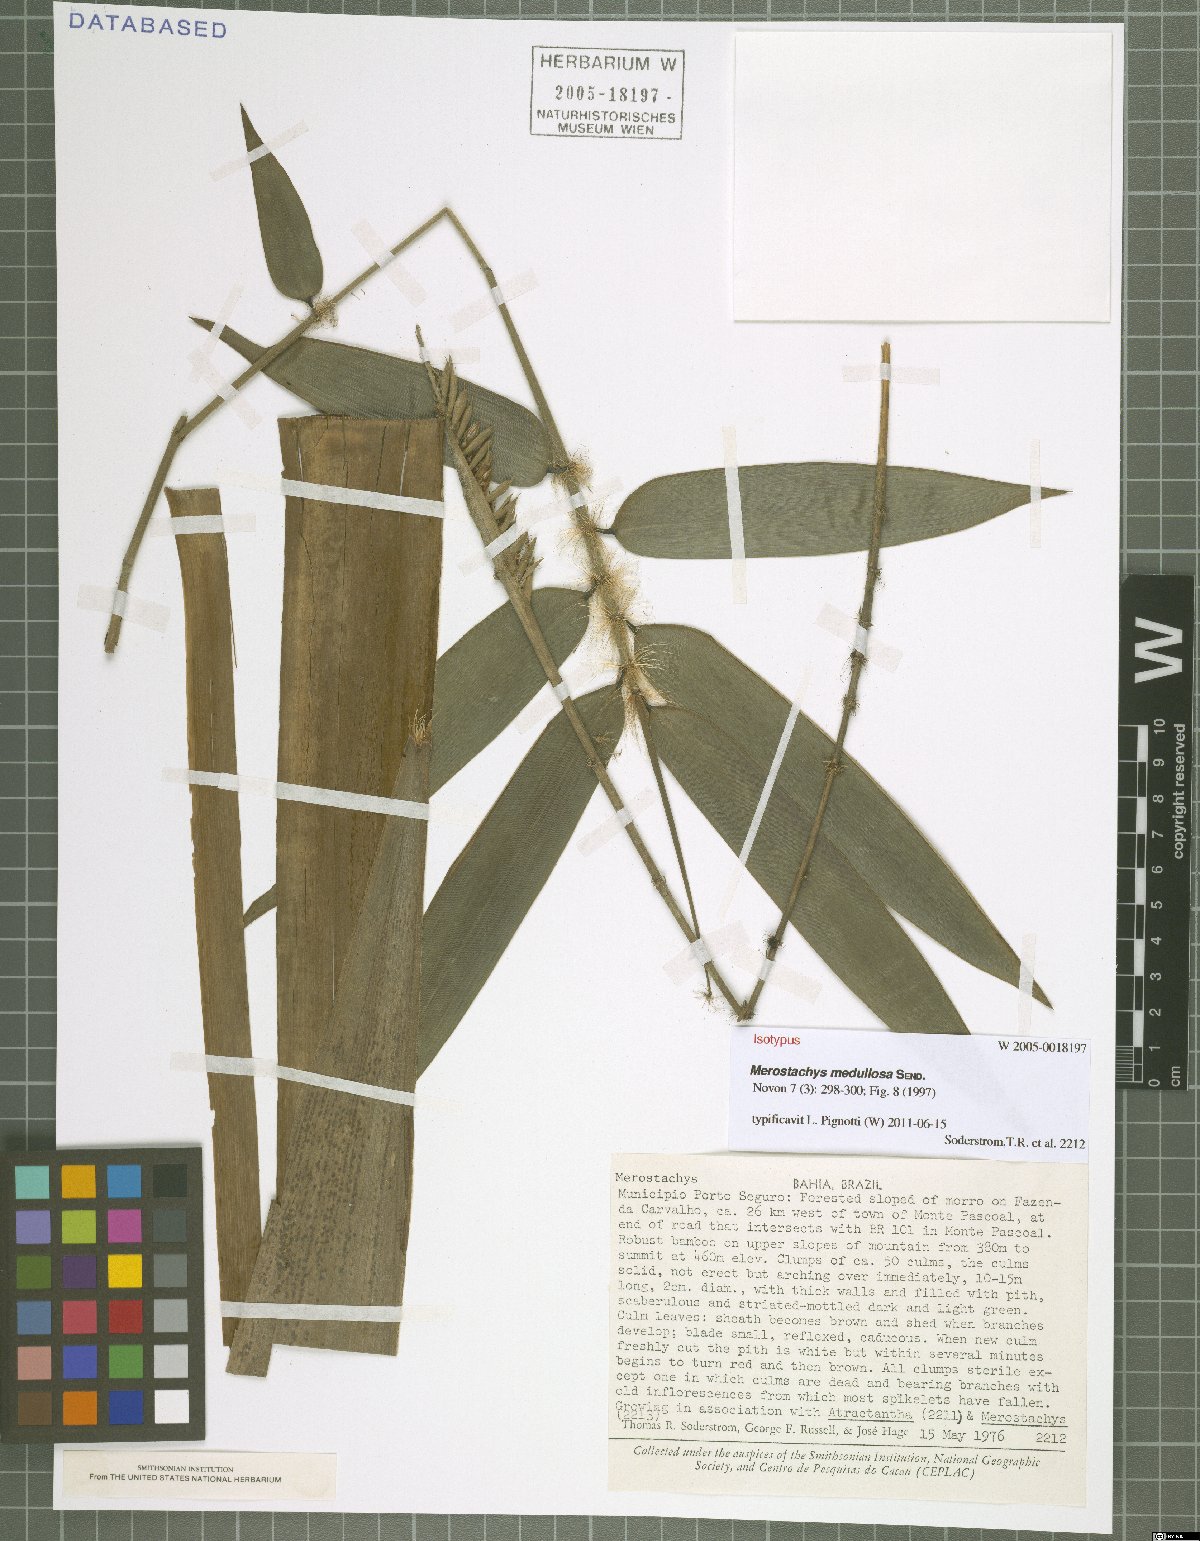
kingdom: Plantae
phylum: Tracheophyta
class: Liliopsida
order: Poales
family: Poaceae
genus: Merostachys
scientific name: Merostachys medullosa
